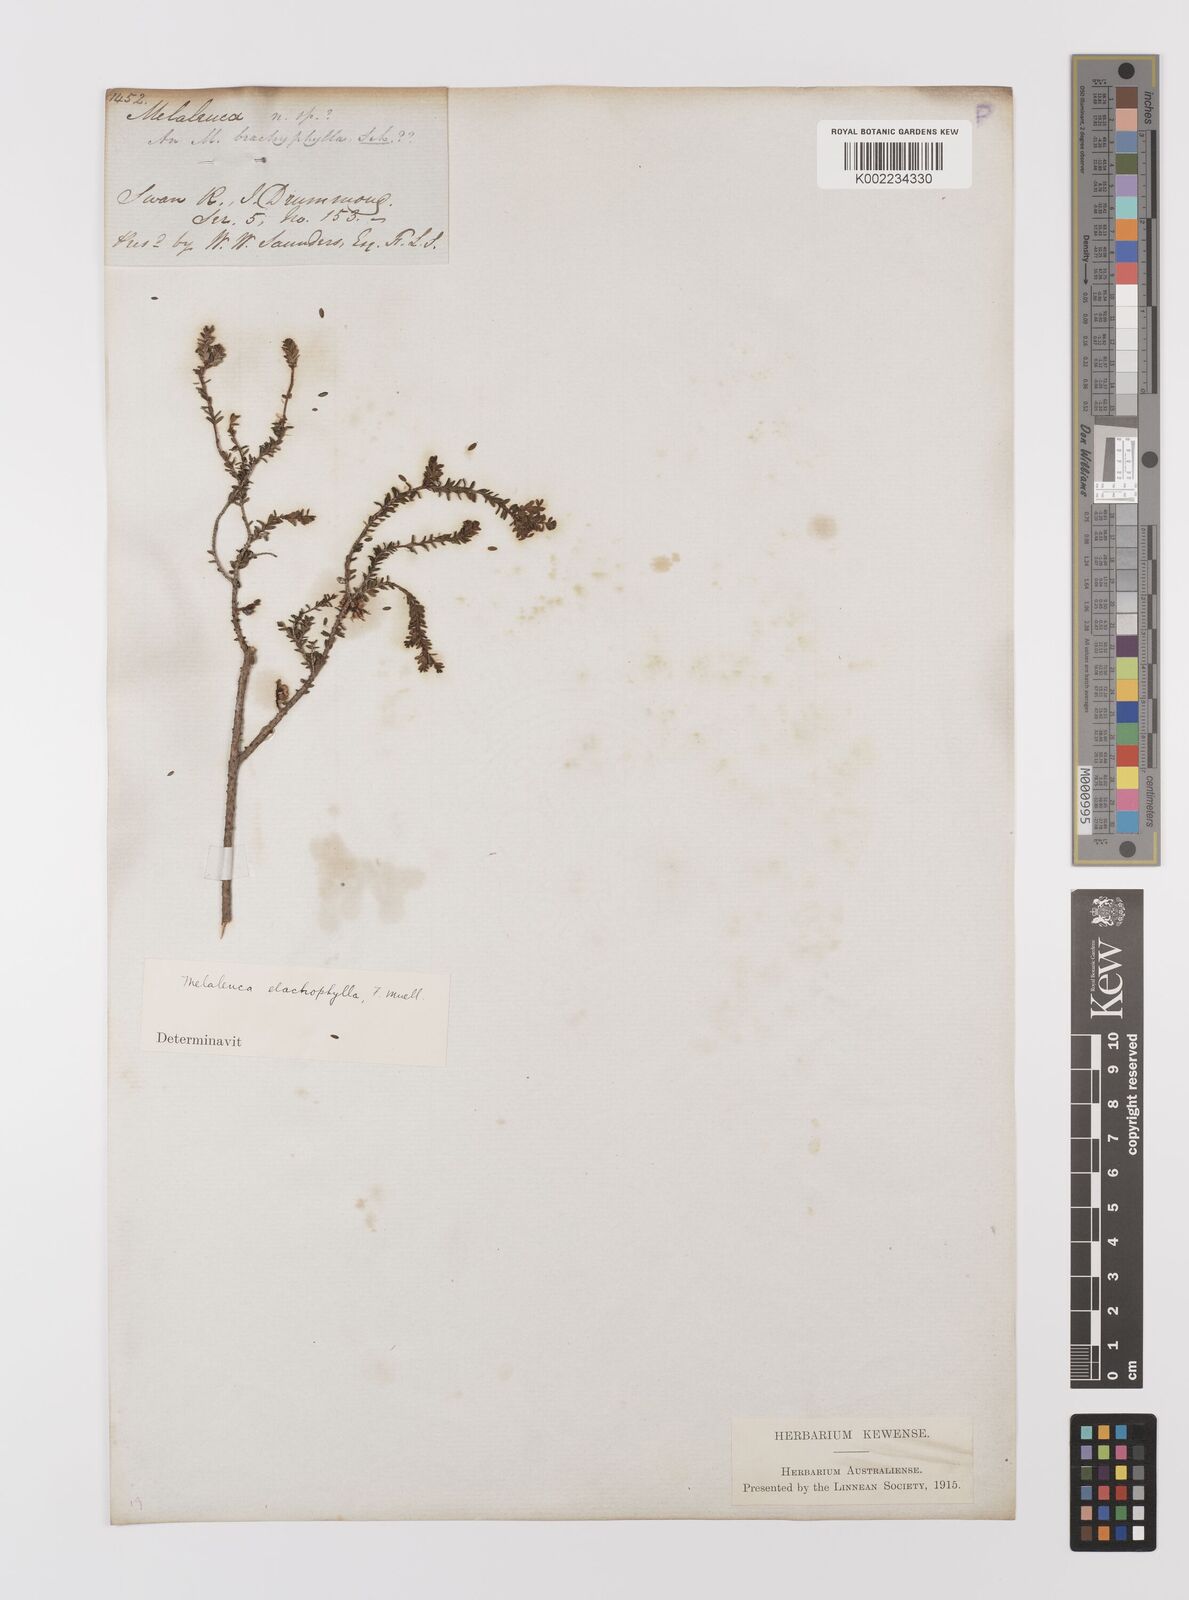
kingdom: Plantae
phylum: Tracheophyta
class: Magnoliopsida
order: Myrtales
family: Myrtaceae
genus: Melaleuca
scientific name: Melaleuca depauperata
